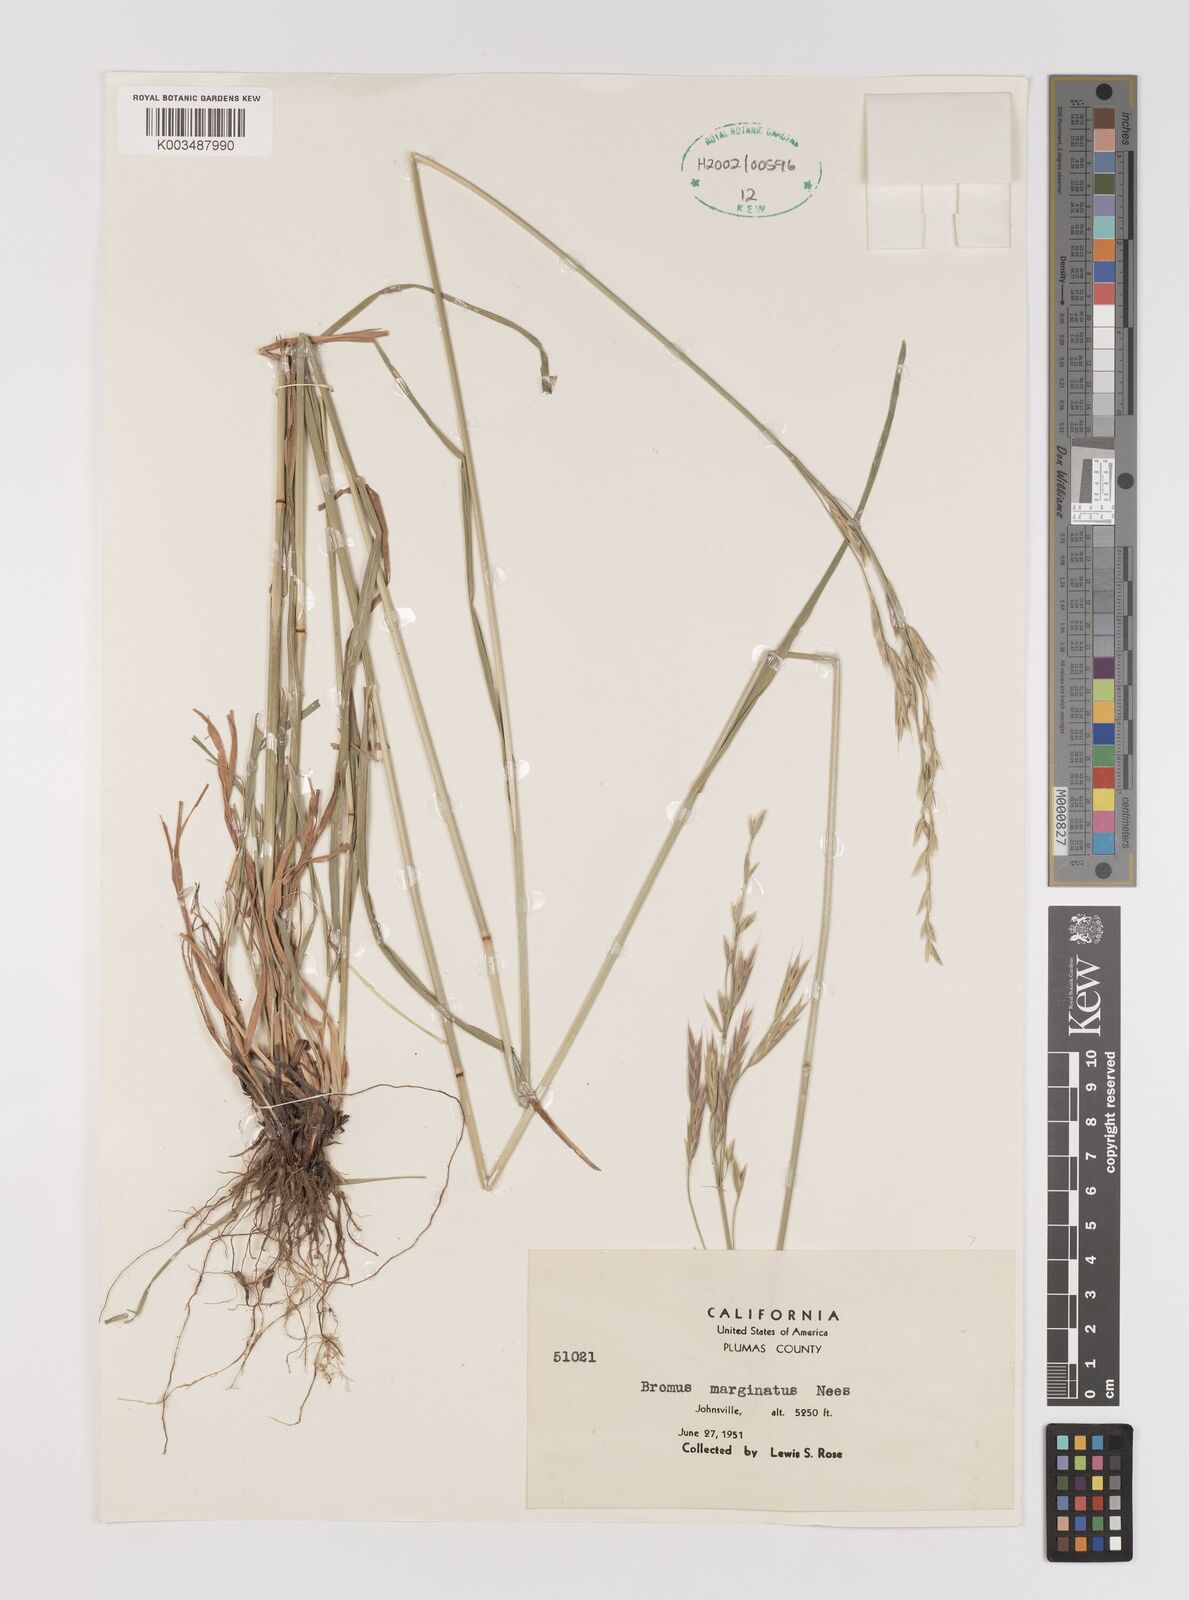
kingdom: Plantae
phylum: Tracheophyta
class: Liliopsida
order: Poales
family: Poaceae
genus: Bromus
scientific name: Bromus marginatus
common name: Western brome
